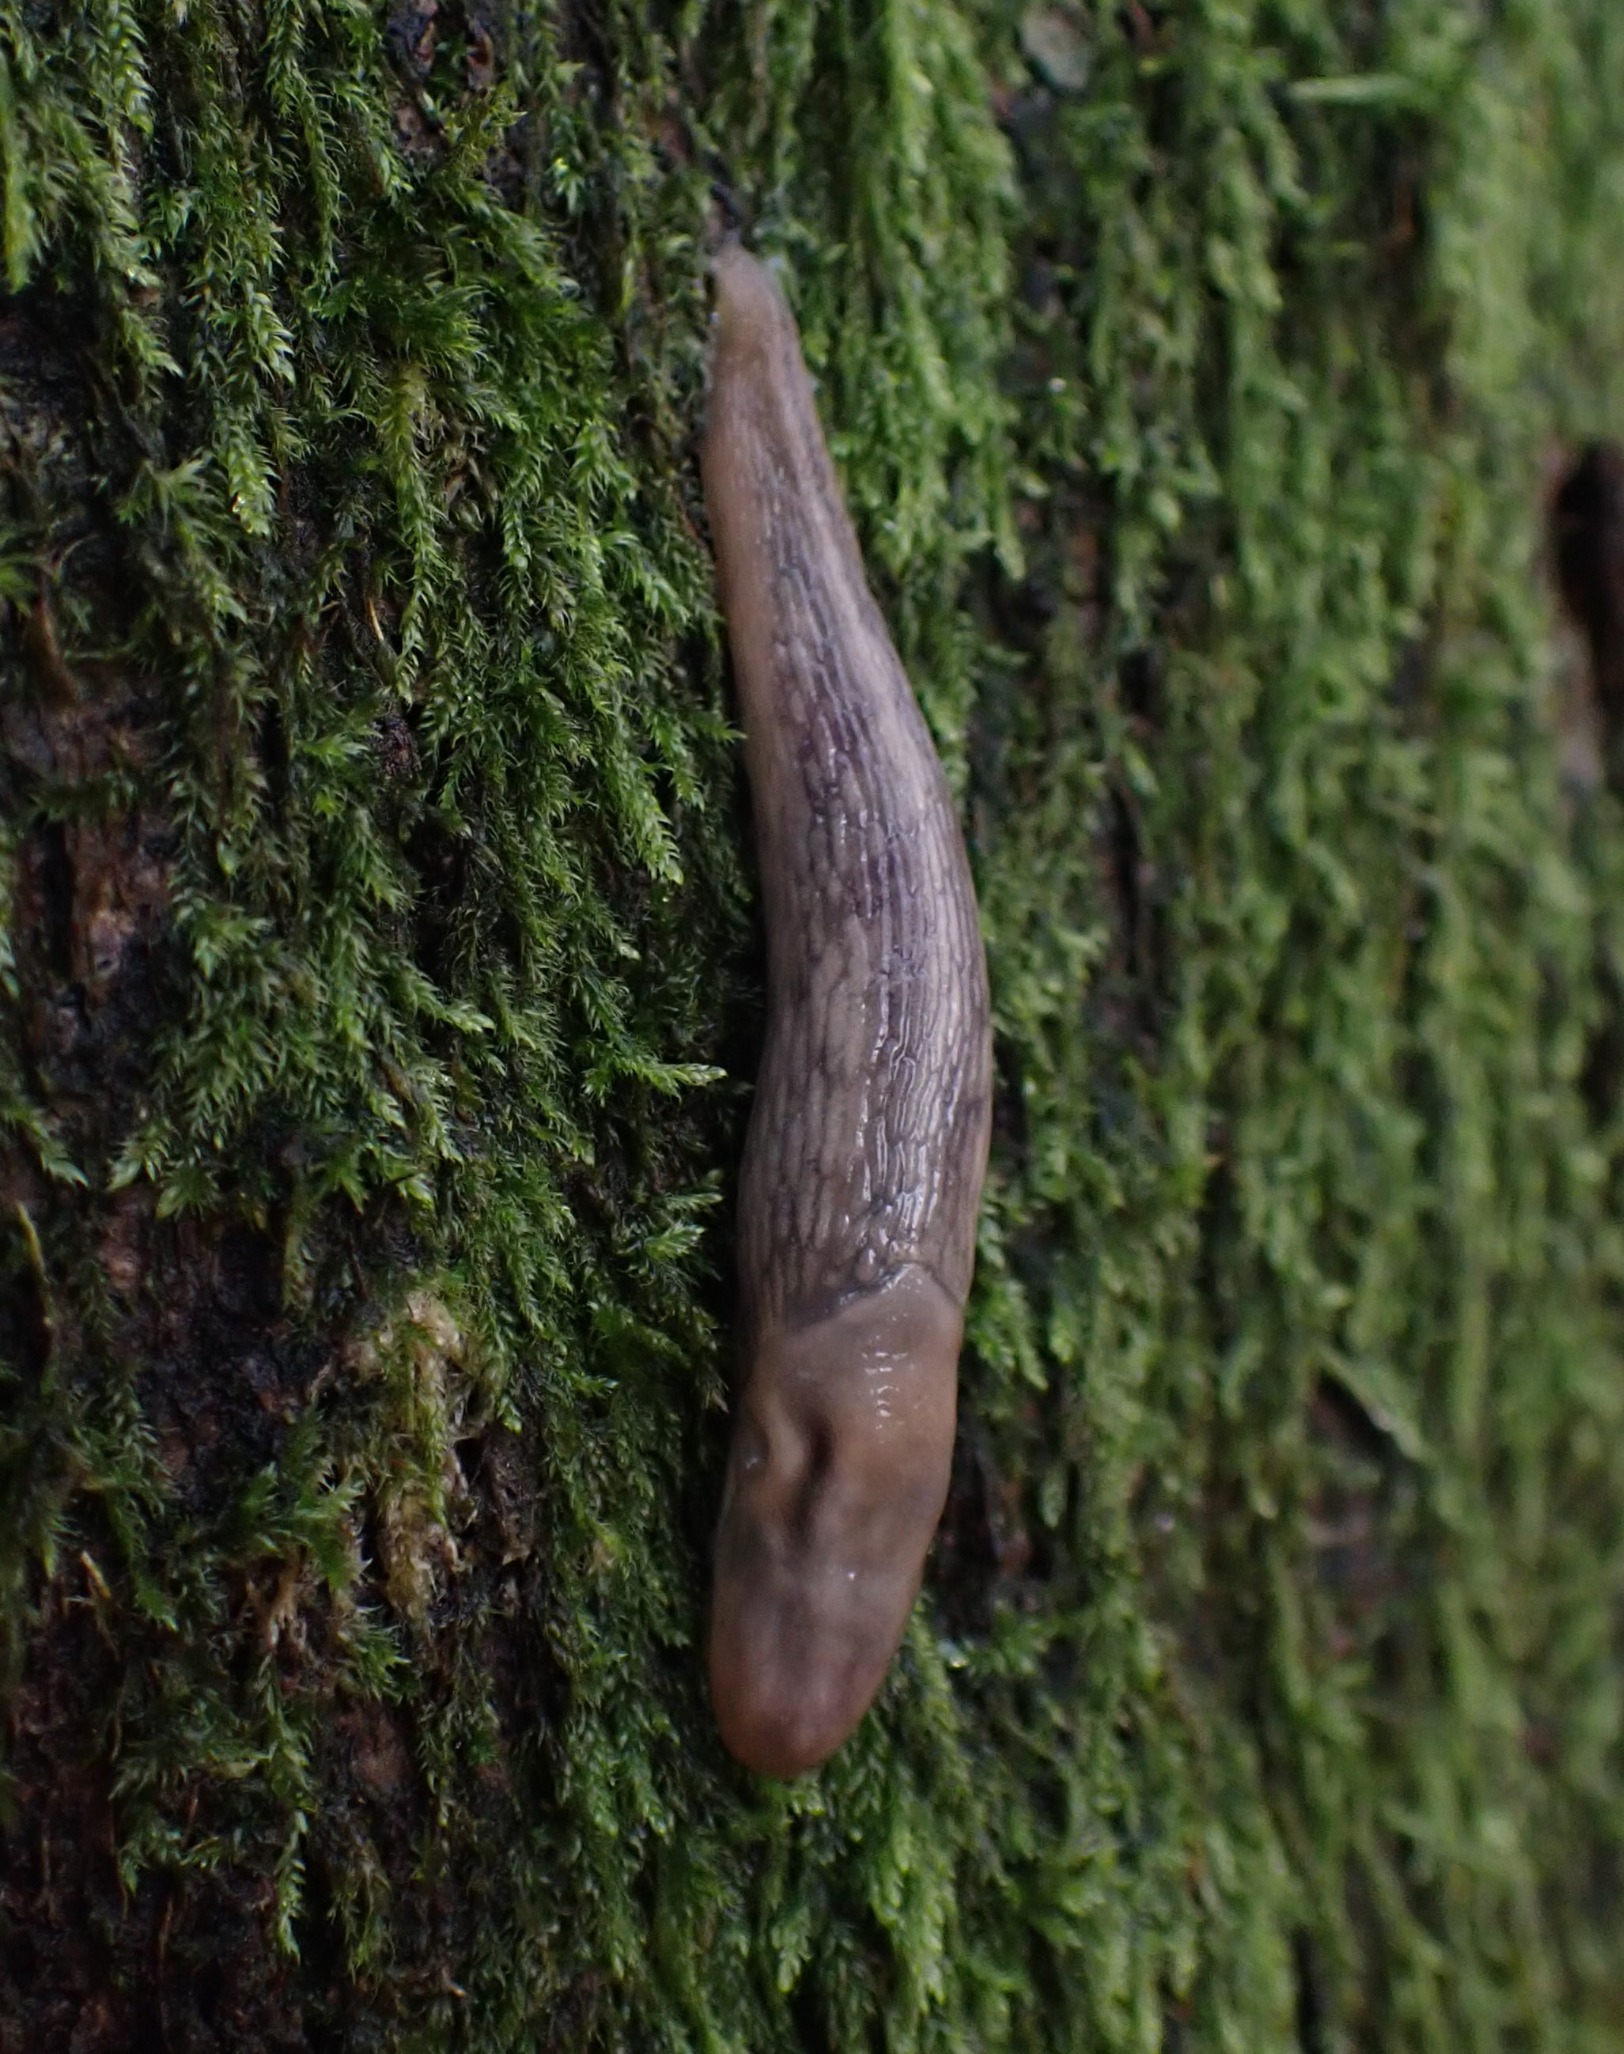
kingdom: Animalia
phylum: Mollusca
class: Gastropoda
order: Stylommatophora
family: Limacidae
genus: Lehmannia
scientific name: Lehmannia marginata
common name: Bøgesnegl
